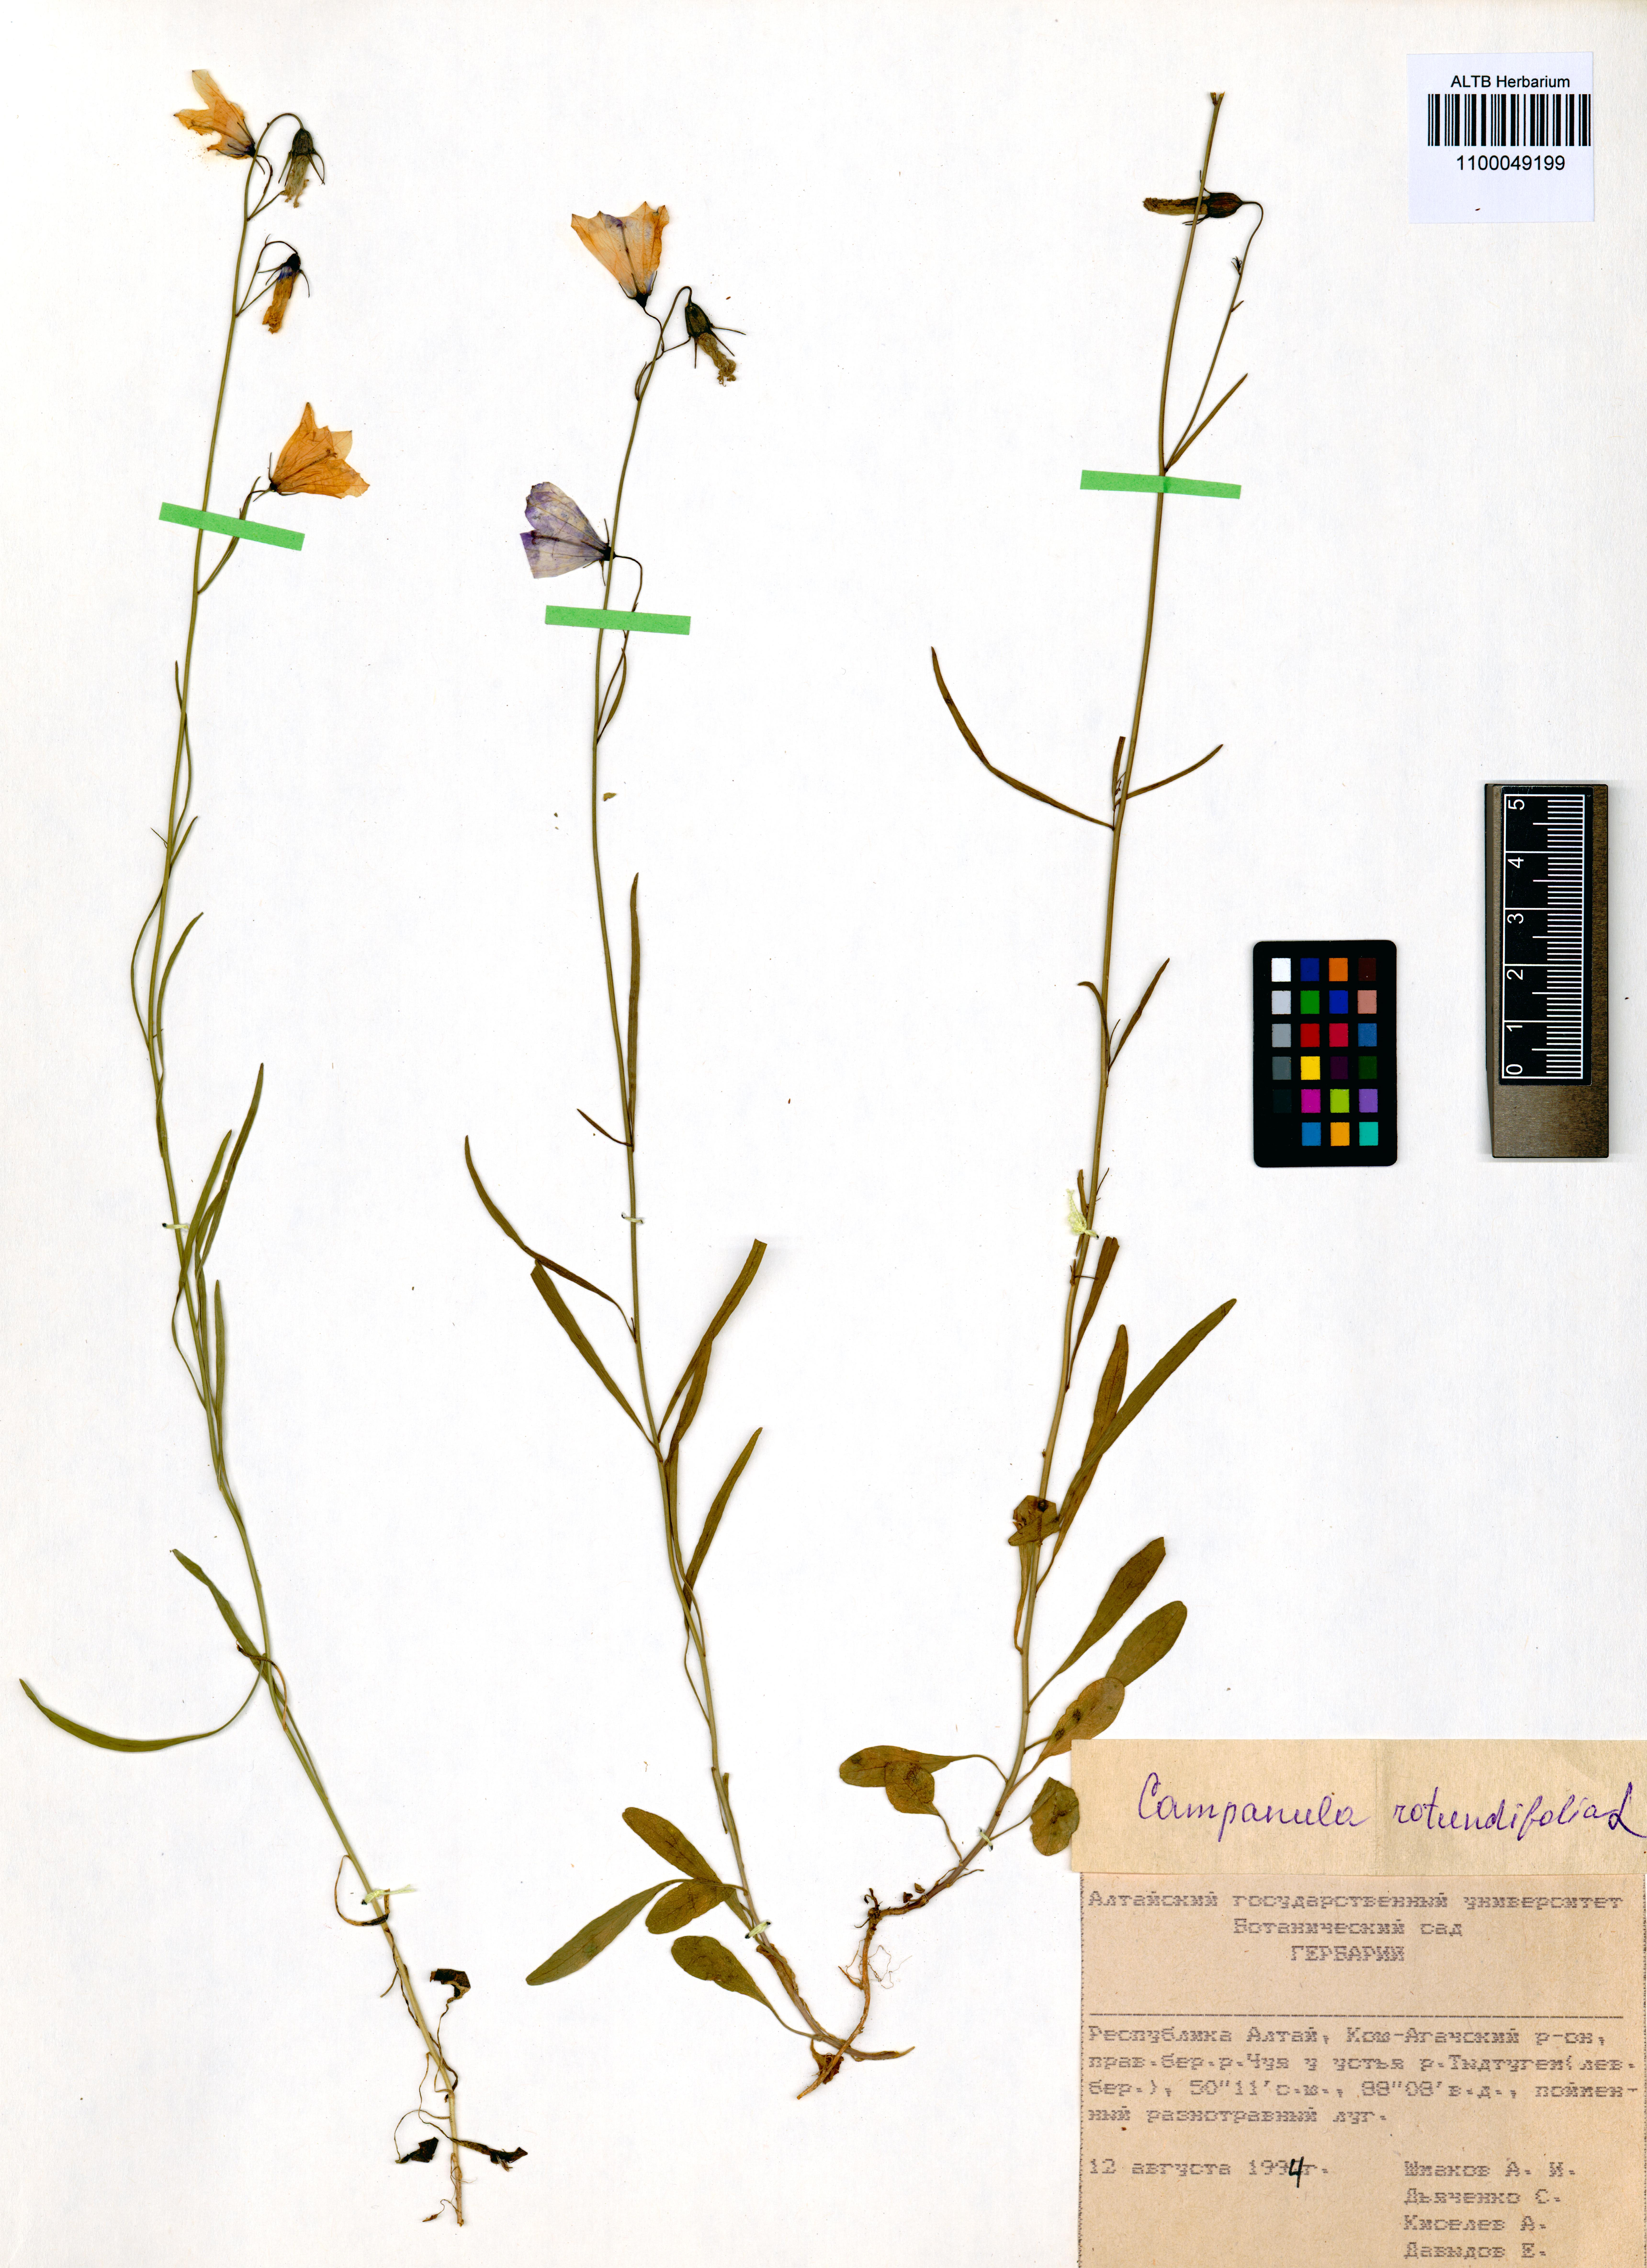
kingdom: Plantae
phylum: Tracheophyta
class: Magnoliopsida
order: Asterales
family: Campanulaceae
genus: Campanula
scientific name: Campanula rotundifolia
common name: Harebell
